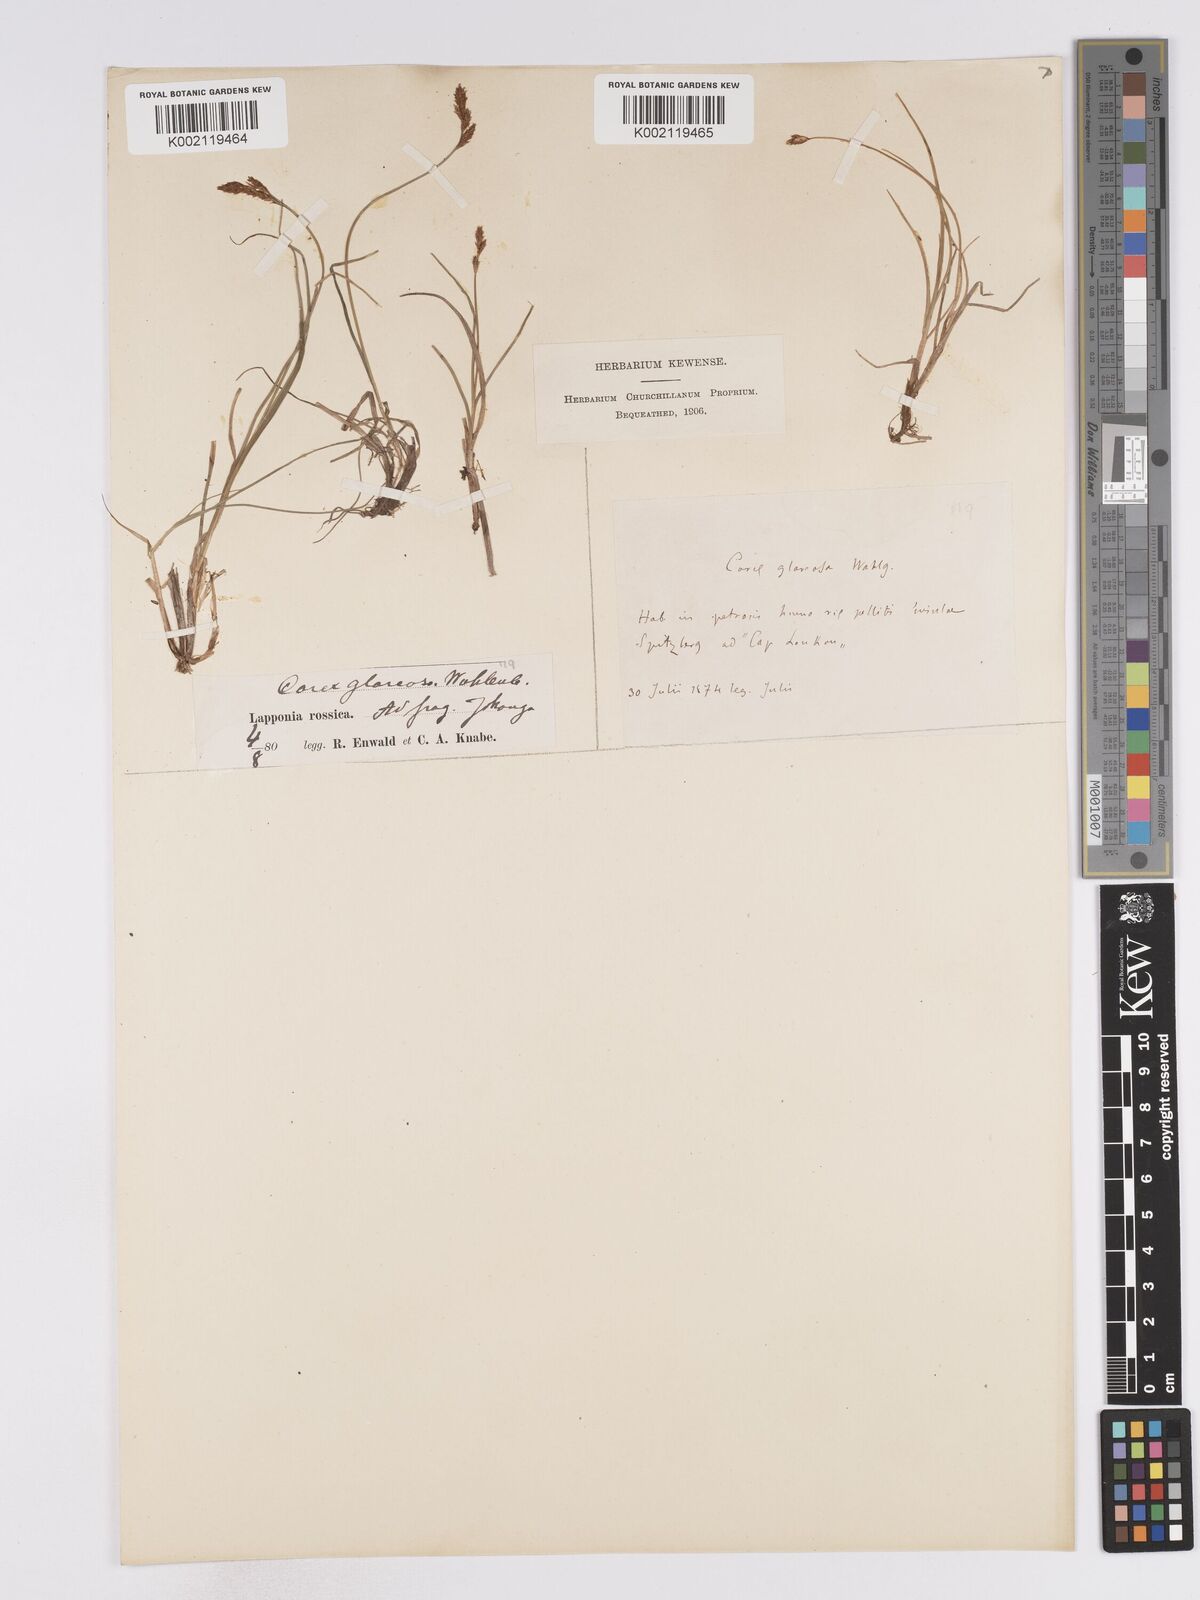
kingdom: Plantae
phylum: Tracheophyta
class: Liliopsida
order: Poales
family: Cyperaceae
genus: Carex
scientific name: Carex glareosa
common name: Clustered sedge
